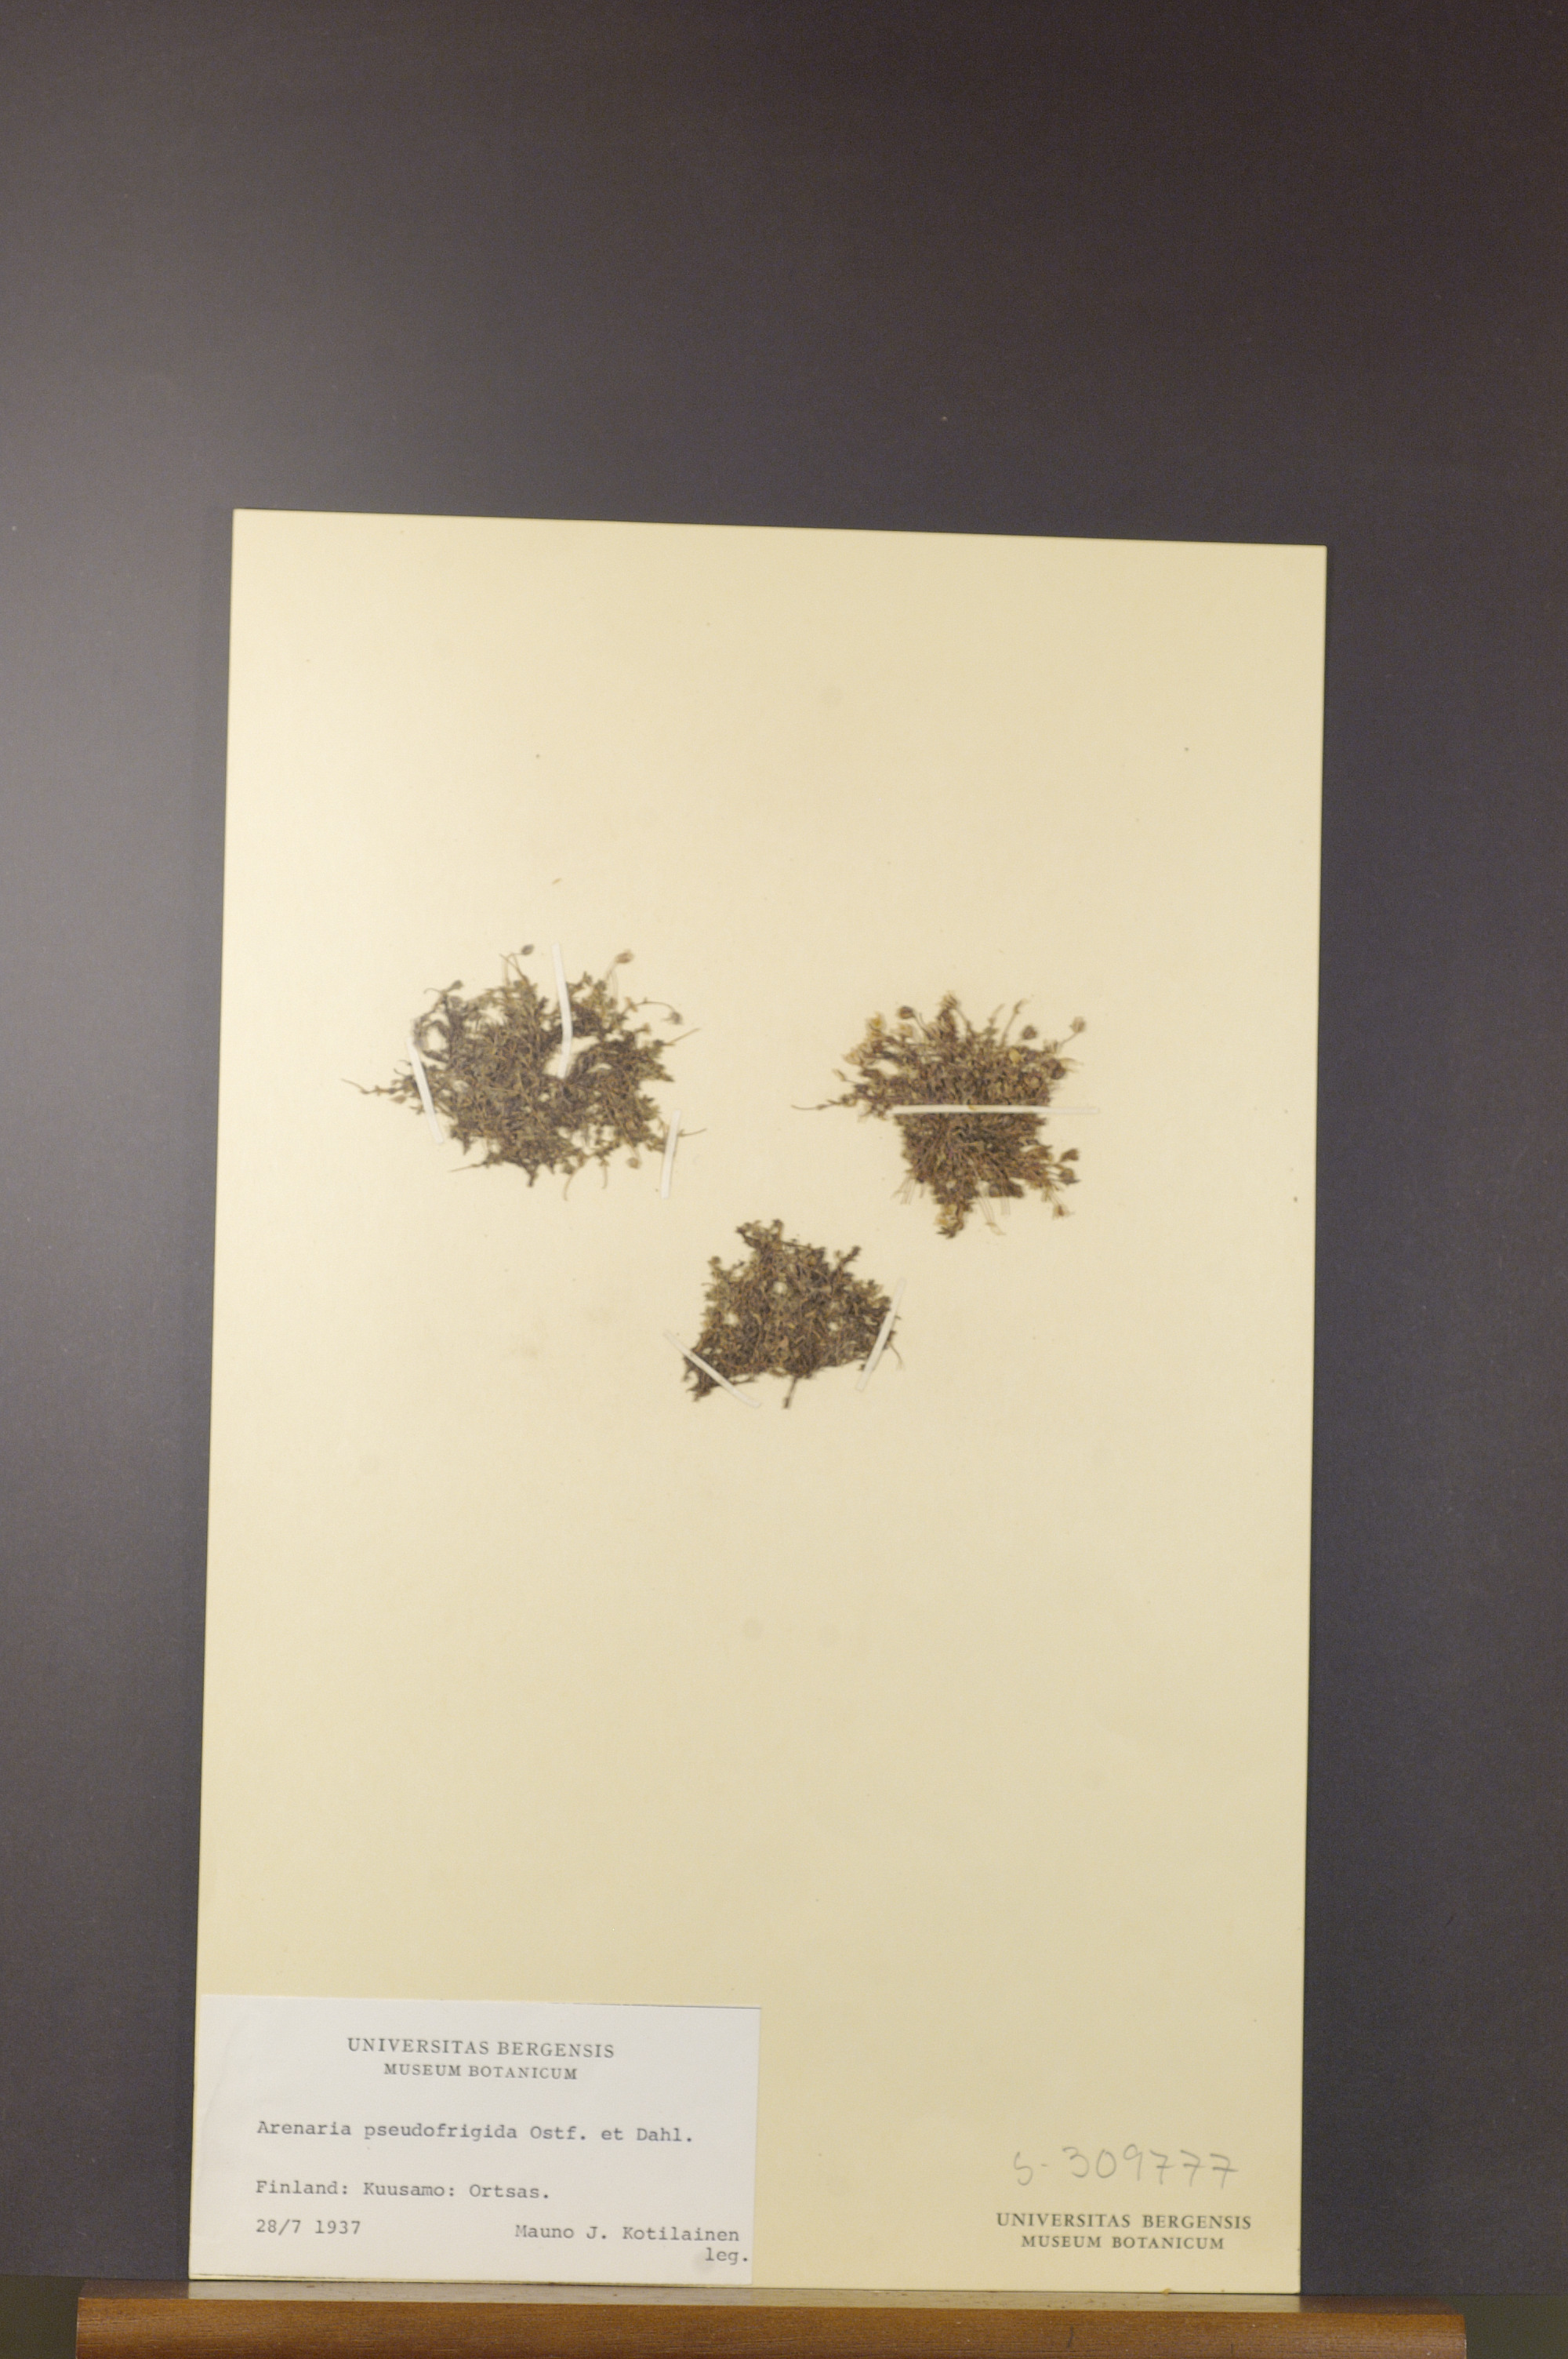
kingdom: Plantae
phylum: Tracheophyta
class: Magnoliopsida
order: Caryophyllales
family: Caryophyllaceae
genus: Arenaria
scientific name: Arenaria pseudofrigida
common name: Tundra sandwort
